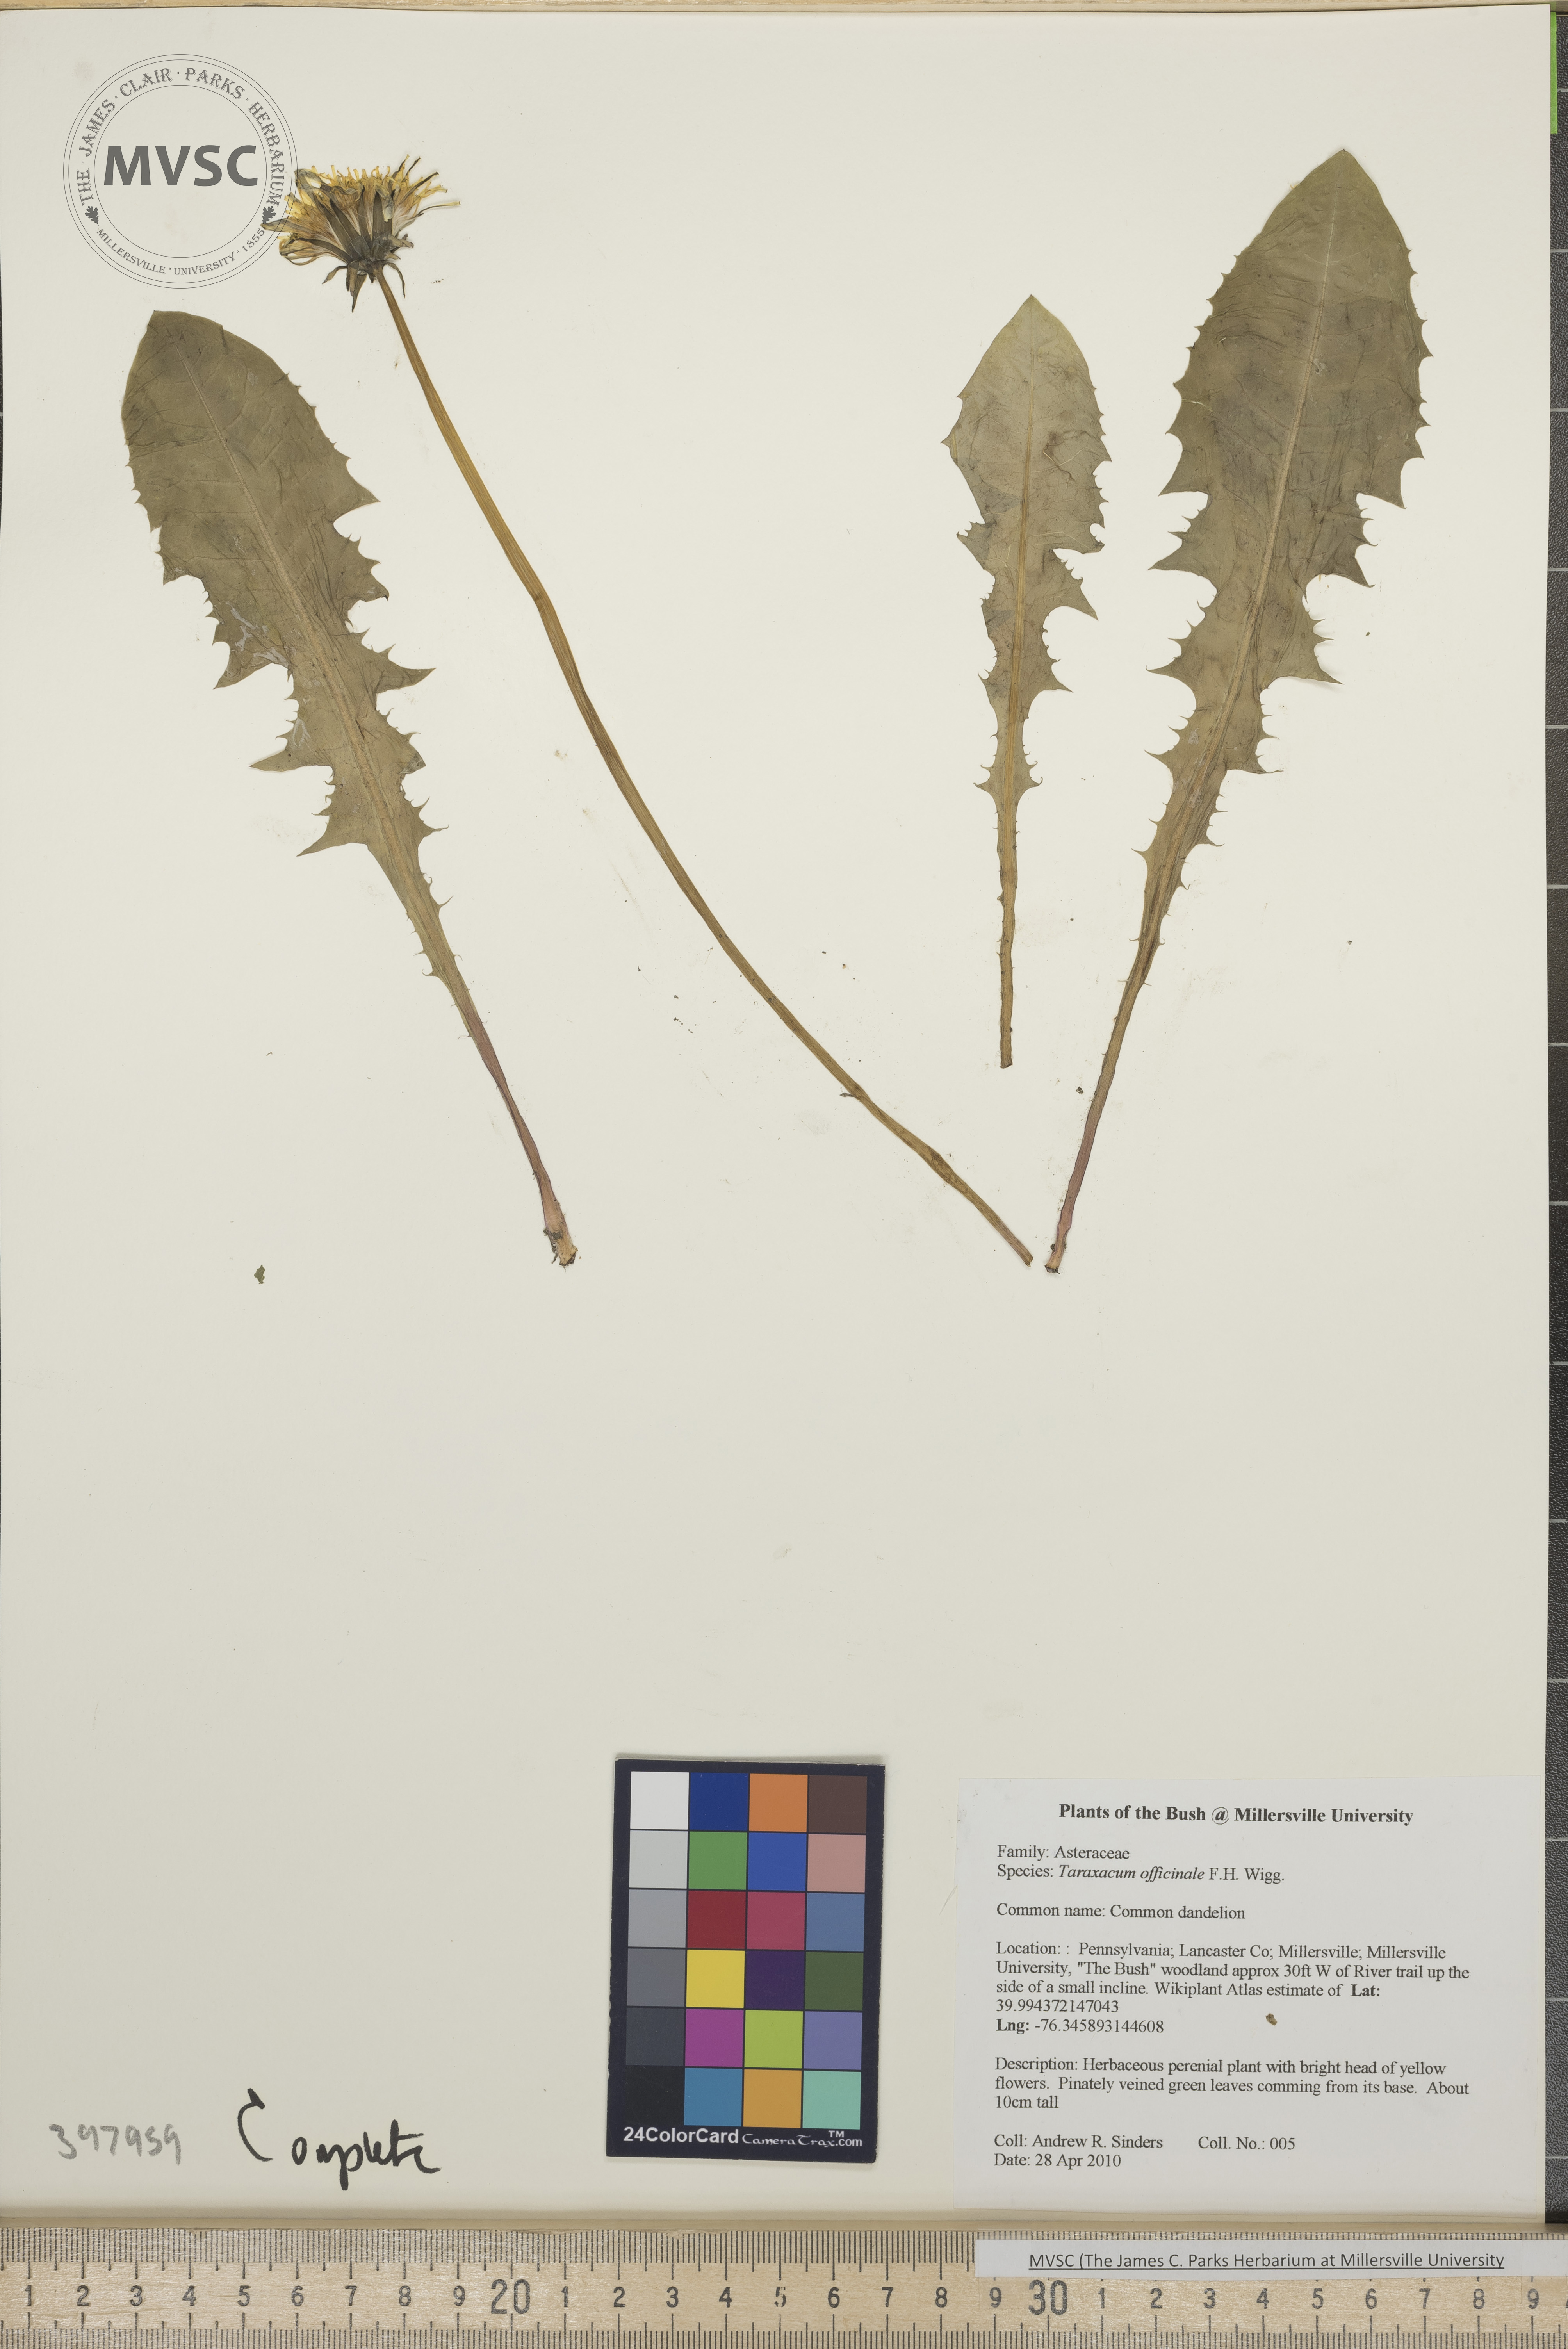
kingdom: Plantae
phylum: Tracheophyta
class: Magnoliopsida
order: Asterales
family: Asteraceae
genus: Taraxacum
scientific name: Taraxacum officinale
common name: Common dandelion
